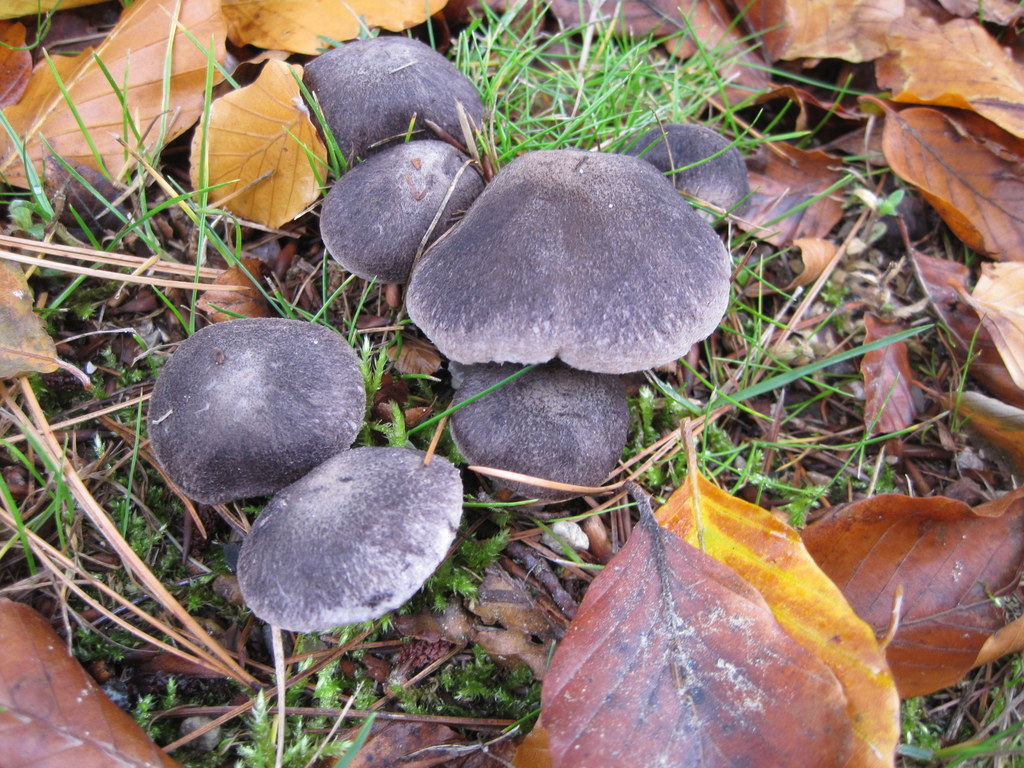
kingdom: Fungi
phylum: Basidiomycota
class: Agaricomycetes
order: Agaricales
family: Tricholomataceae
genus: Tricholoma
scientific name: Tricholoma terreum
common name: jordfarvet ridderhat
